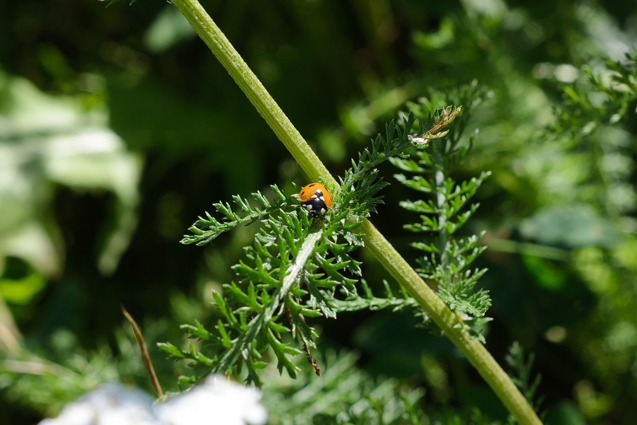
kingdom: Animalia
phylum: Arthropoda
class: Insecta
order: Coleoptera
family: Coccinellidae
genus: Coccinella
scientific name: Coccinella septempunctata
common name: Syvplettet mariehøne
